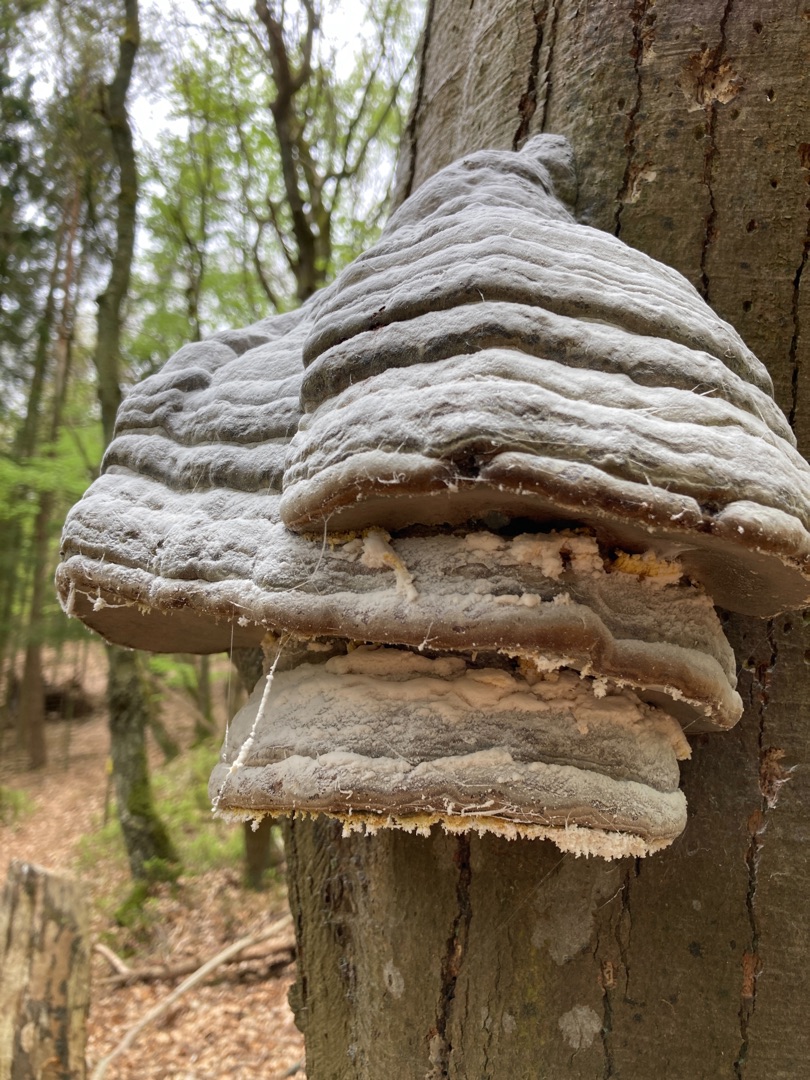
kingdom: Fungi
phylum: Basidiomycota
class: Agaricomycetes
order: Polyporales
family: Polyporaceae
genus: Fomes
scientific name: Fomes fomentarius
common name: Tøndersvamp
